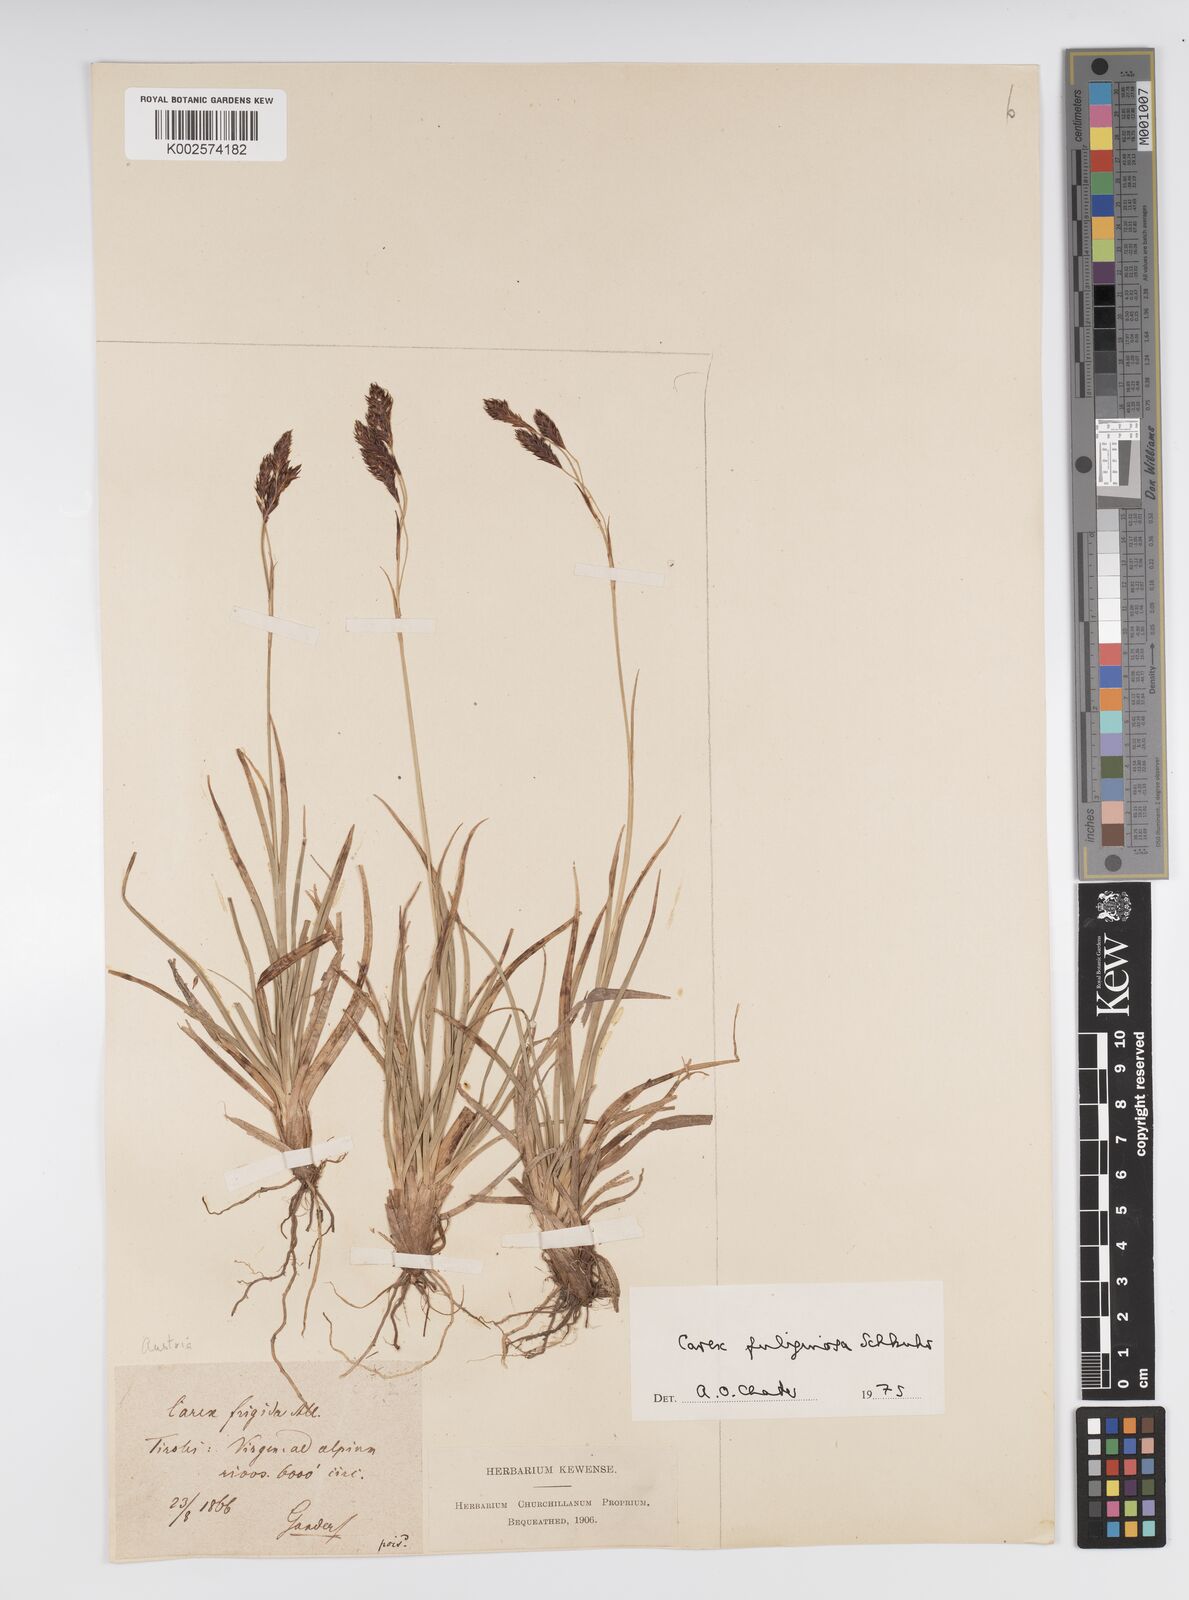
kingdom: Plantae
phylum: Tracheophyta
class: Liliopsida
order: Poales
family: Cyperaceae
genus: Carex
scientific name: Carex frigida
